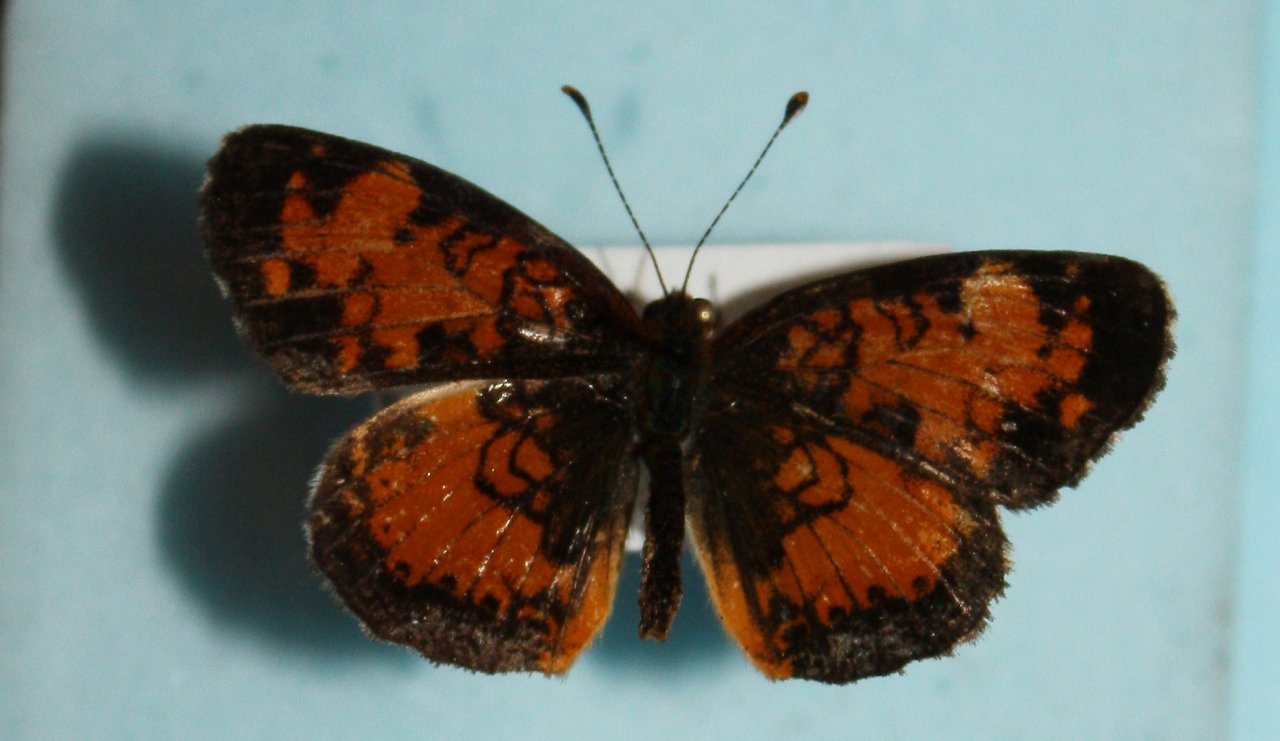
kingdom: Animalia
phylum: Arthropoda
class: Insecta
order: Lepidoptera
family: Nymphalidae
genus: Phyciodes
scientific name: Phyciodes tharos
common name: Northern Crescent
